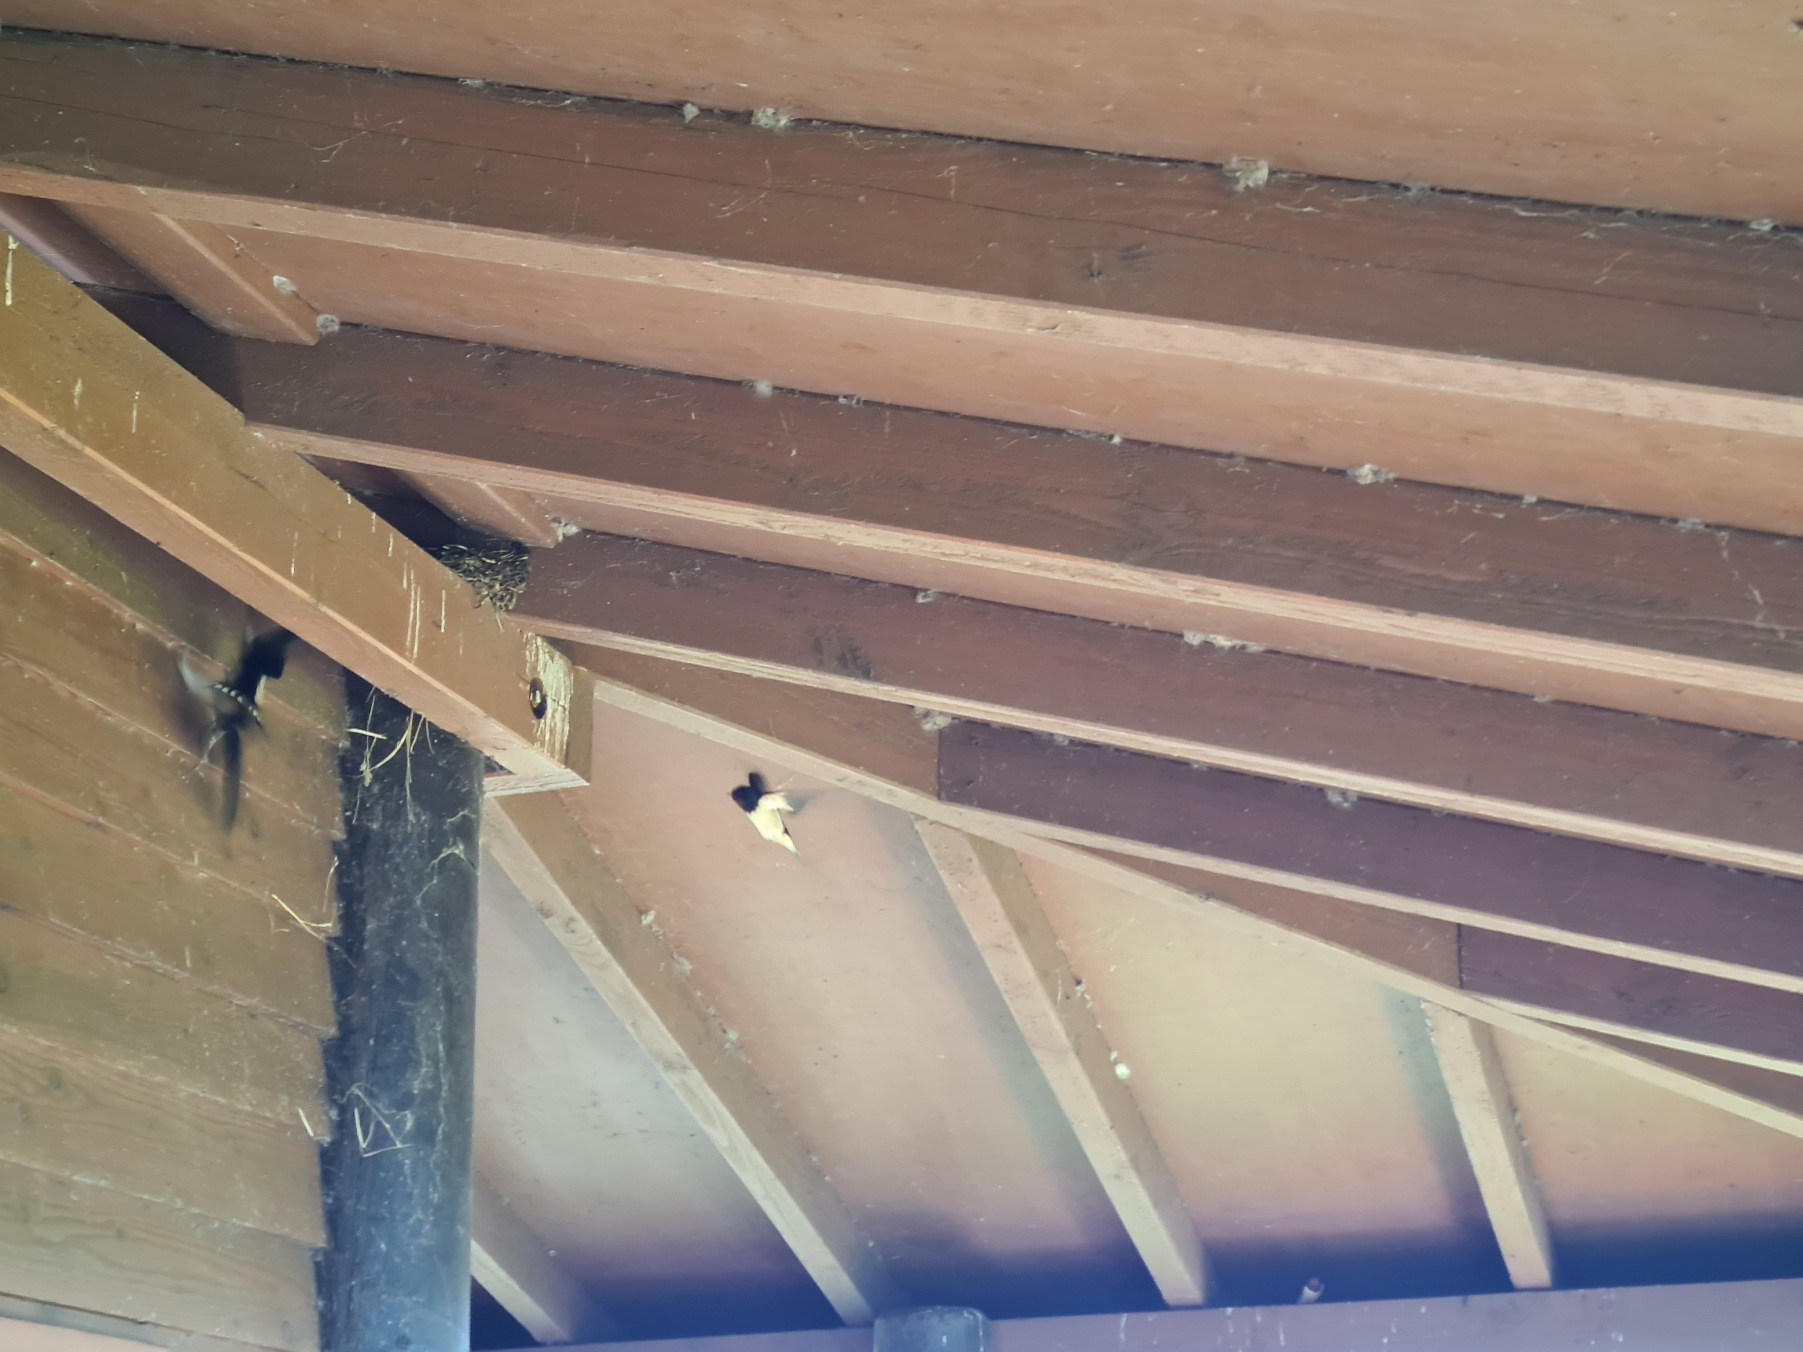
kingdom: Animalia
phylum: Chordata
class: Aves
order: Passeriformes
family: Hirundinidae
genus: Hirundo
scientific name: Hirundo rustica
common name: Landsvale
